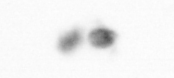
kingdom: Animalia
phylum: Arthropoda
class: Copepoda
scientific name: Copepoda
